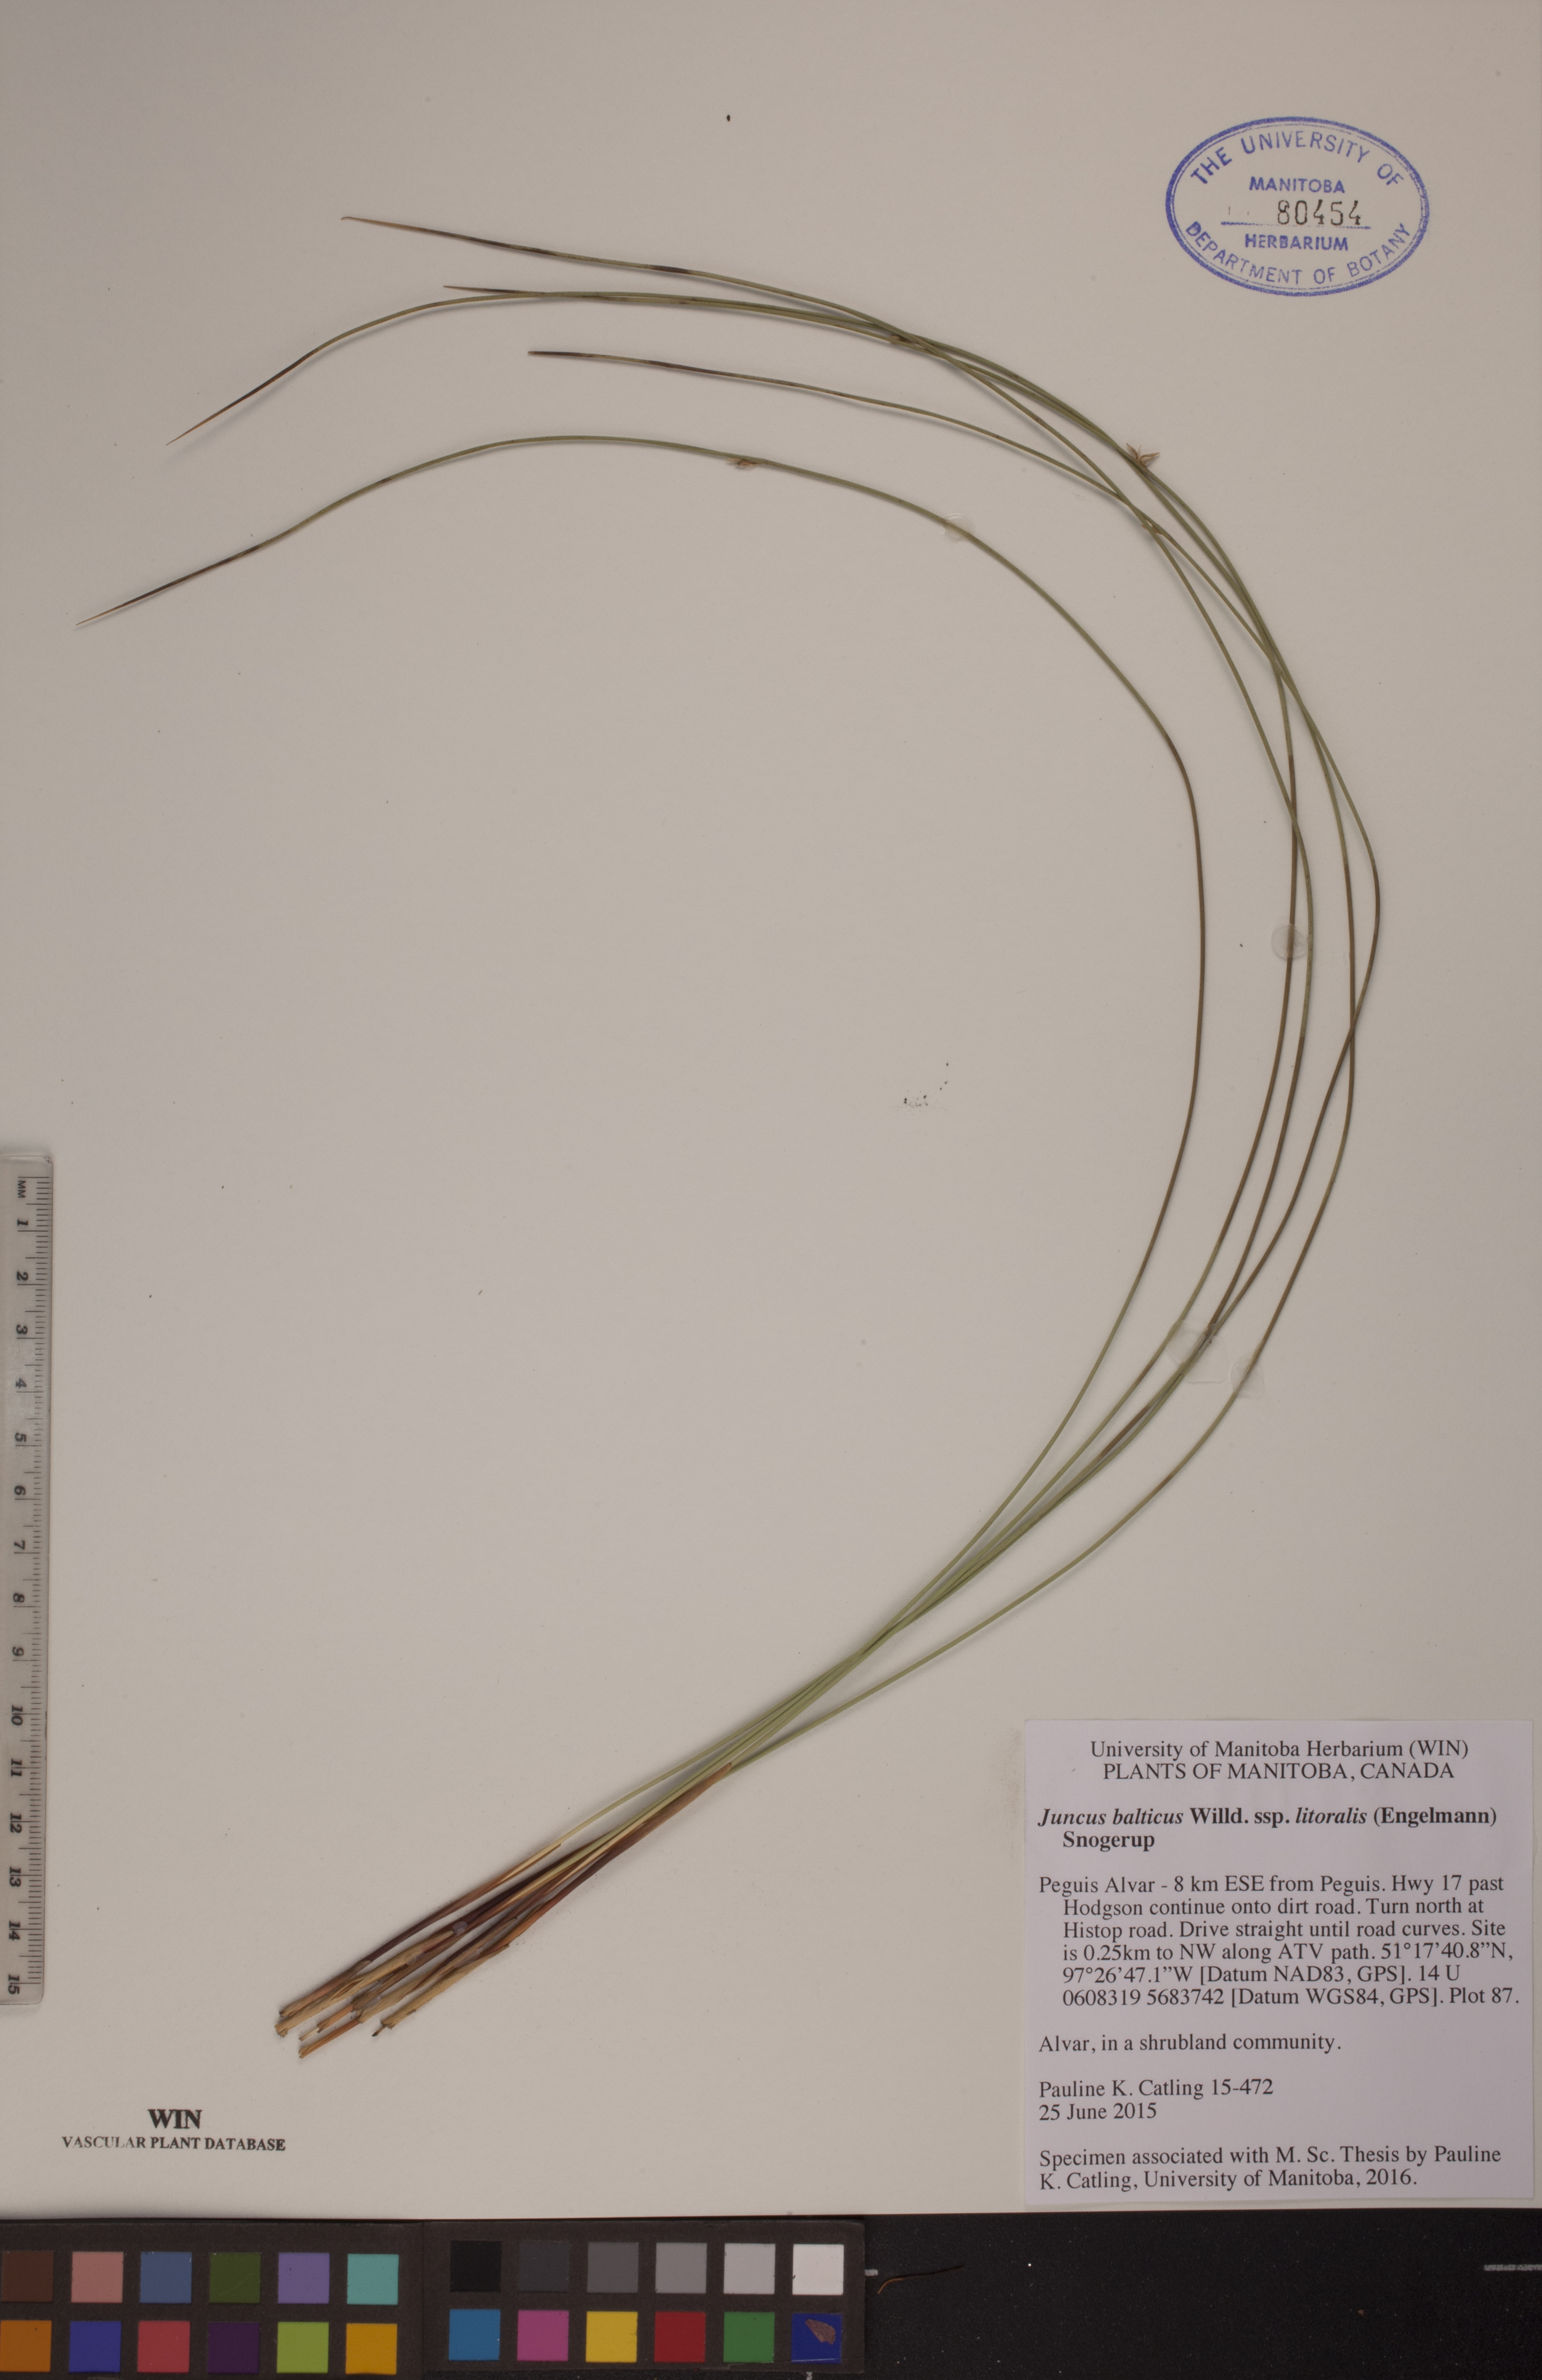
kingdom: Plantae
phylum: Tracheophyta
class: Liliopsida
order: Poales
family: Juncaceae
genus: Juncus
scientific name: Juncus balticus
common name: Baltic rush
